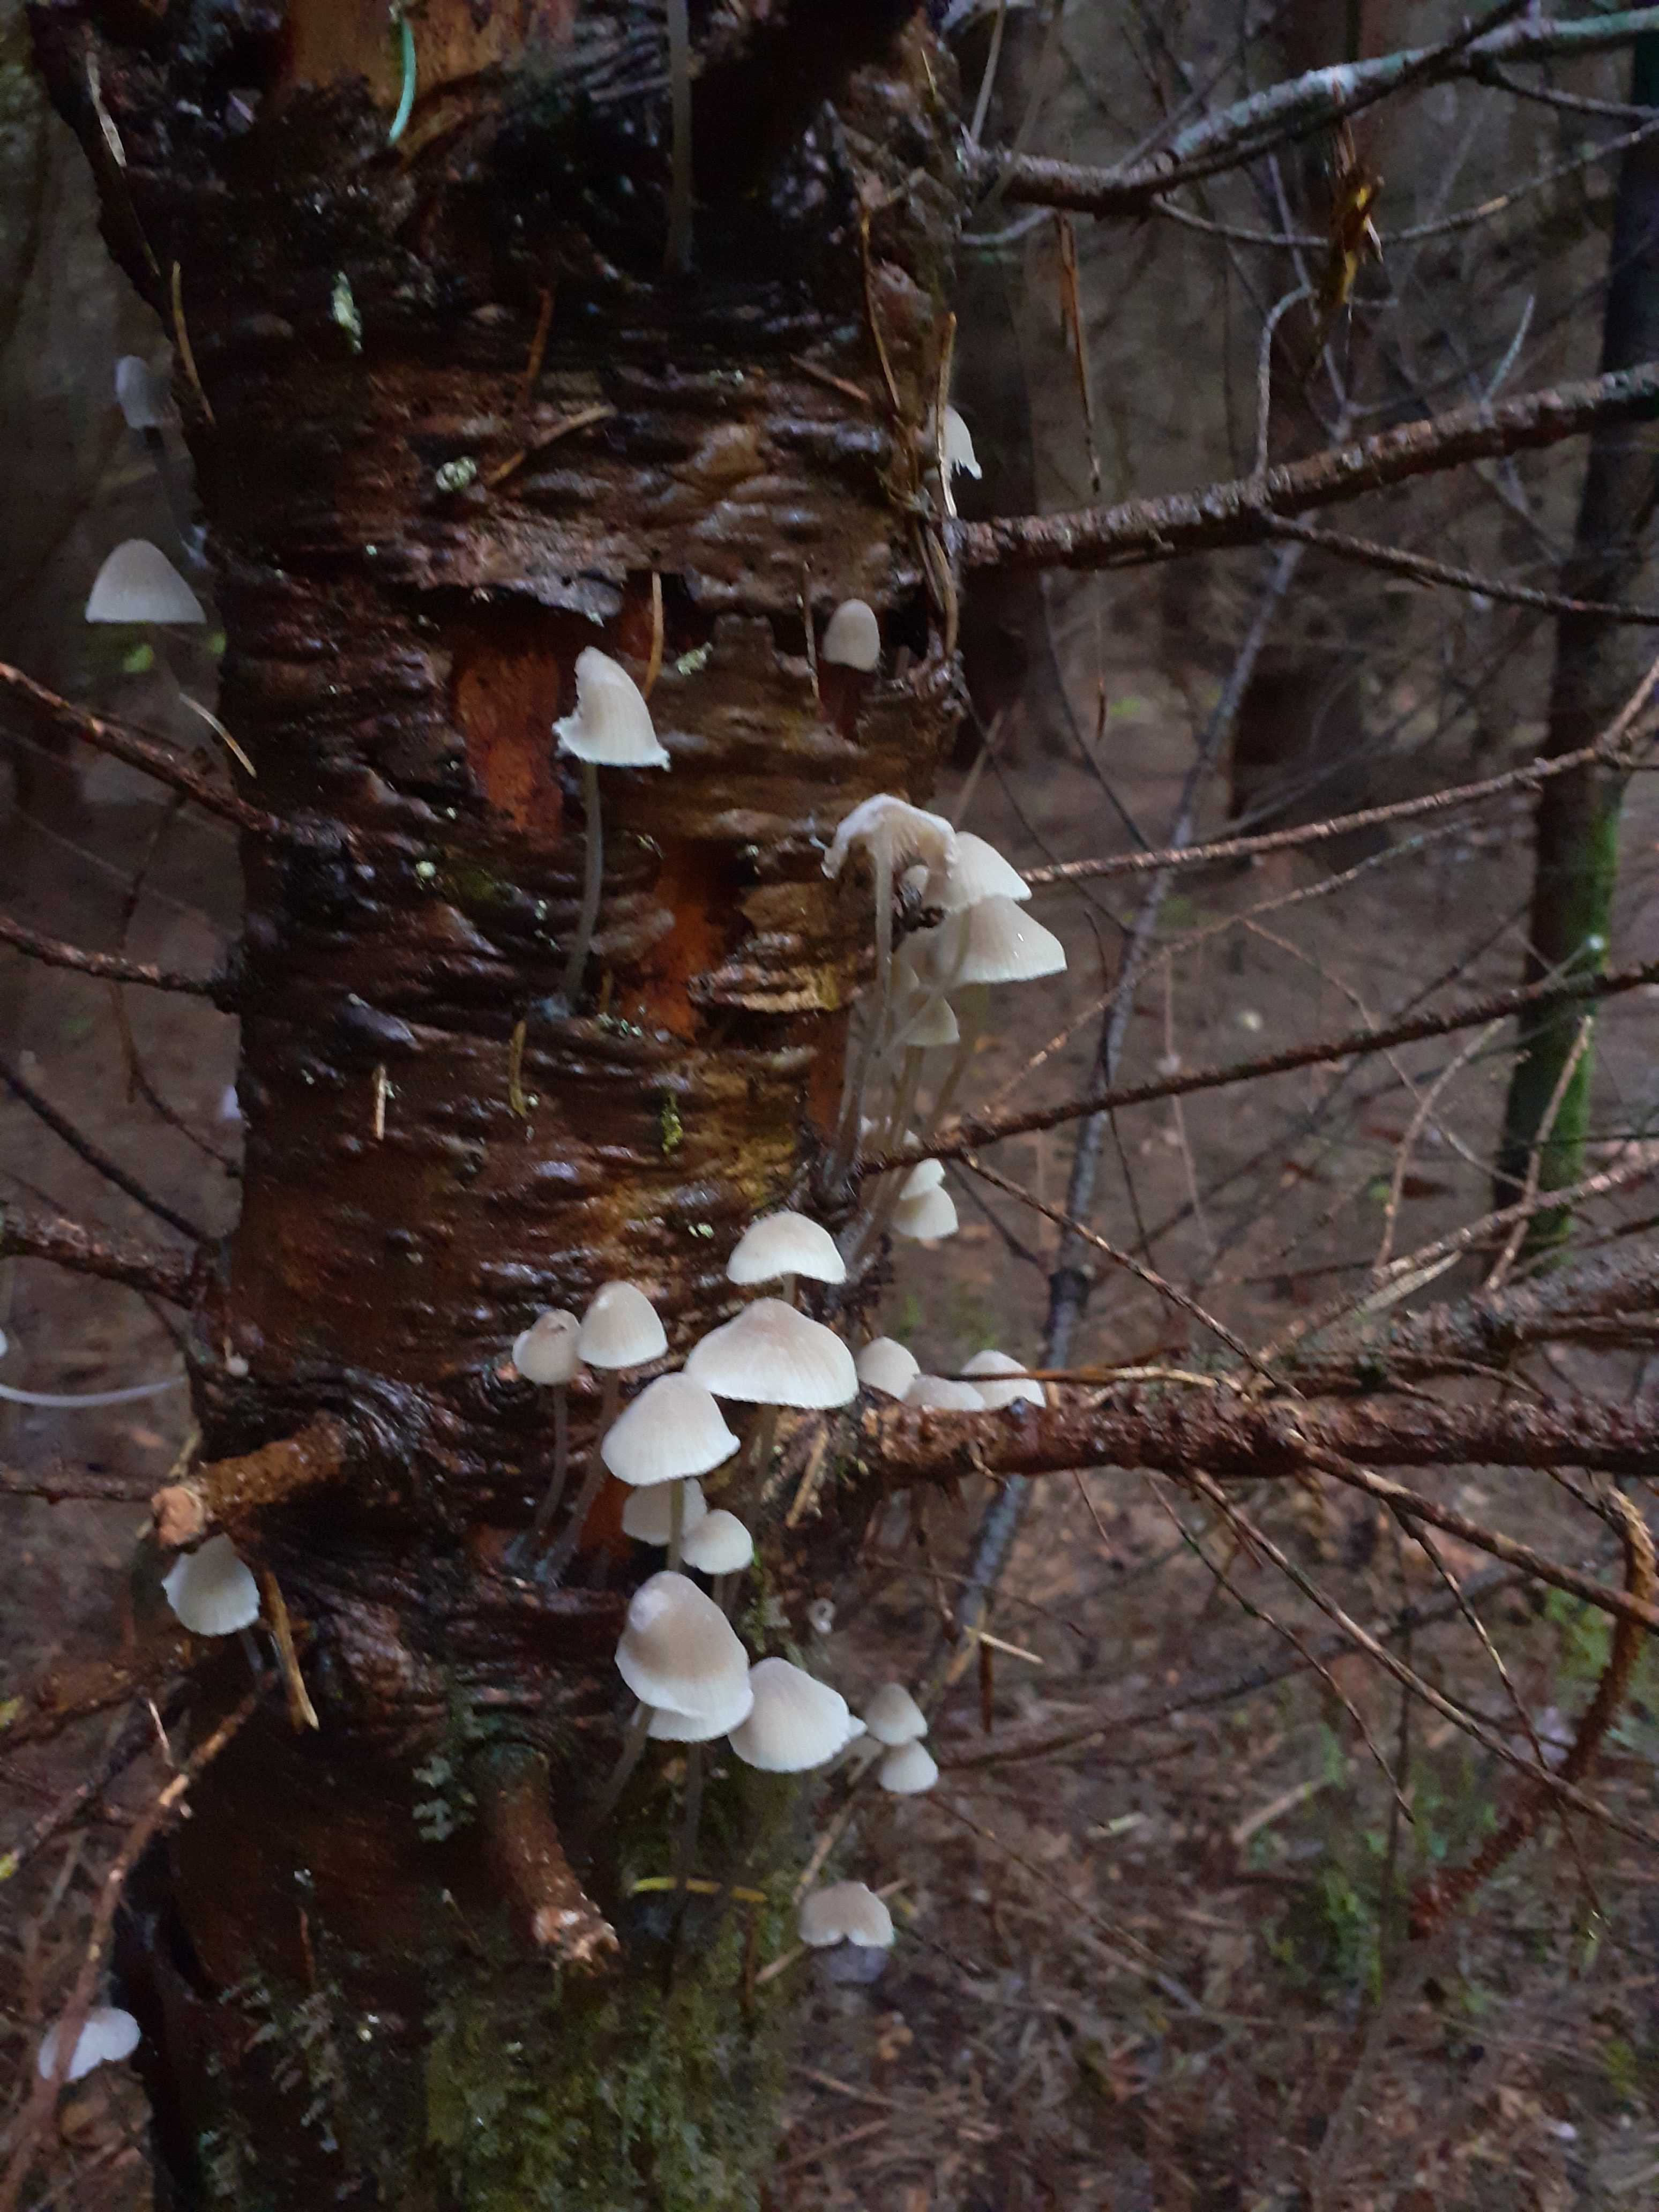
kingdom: Fungi
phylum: Basidiomycota
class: Agaricomycetes
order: Agaricales
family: Mycenaceae
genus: Mycena
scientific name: Mycena arcangeliana
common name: oliven-huesvamp
